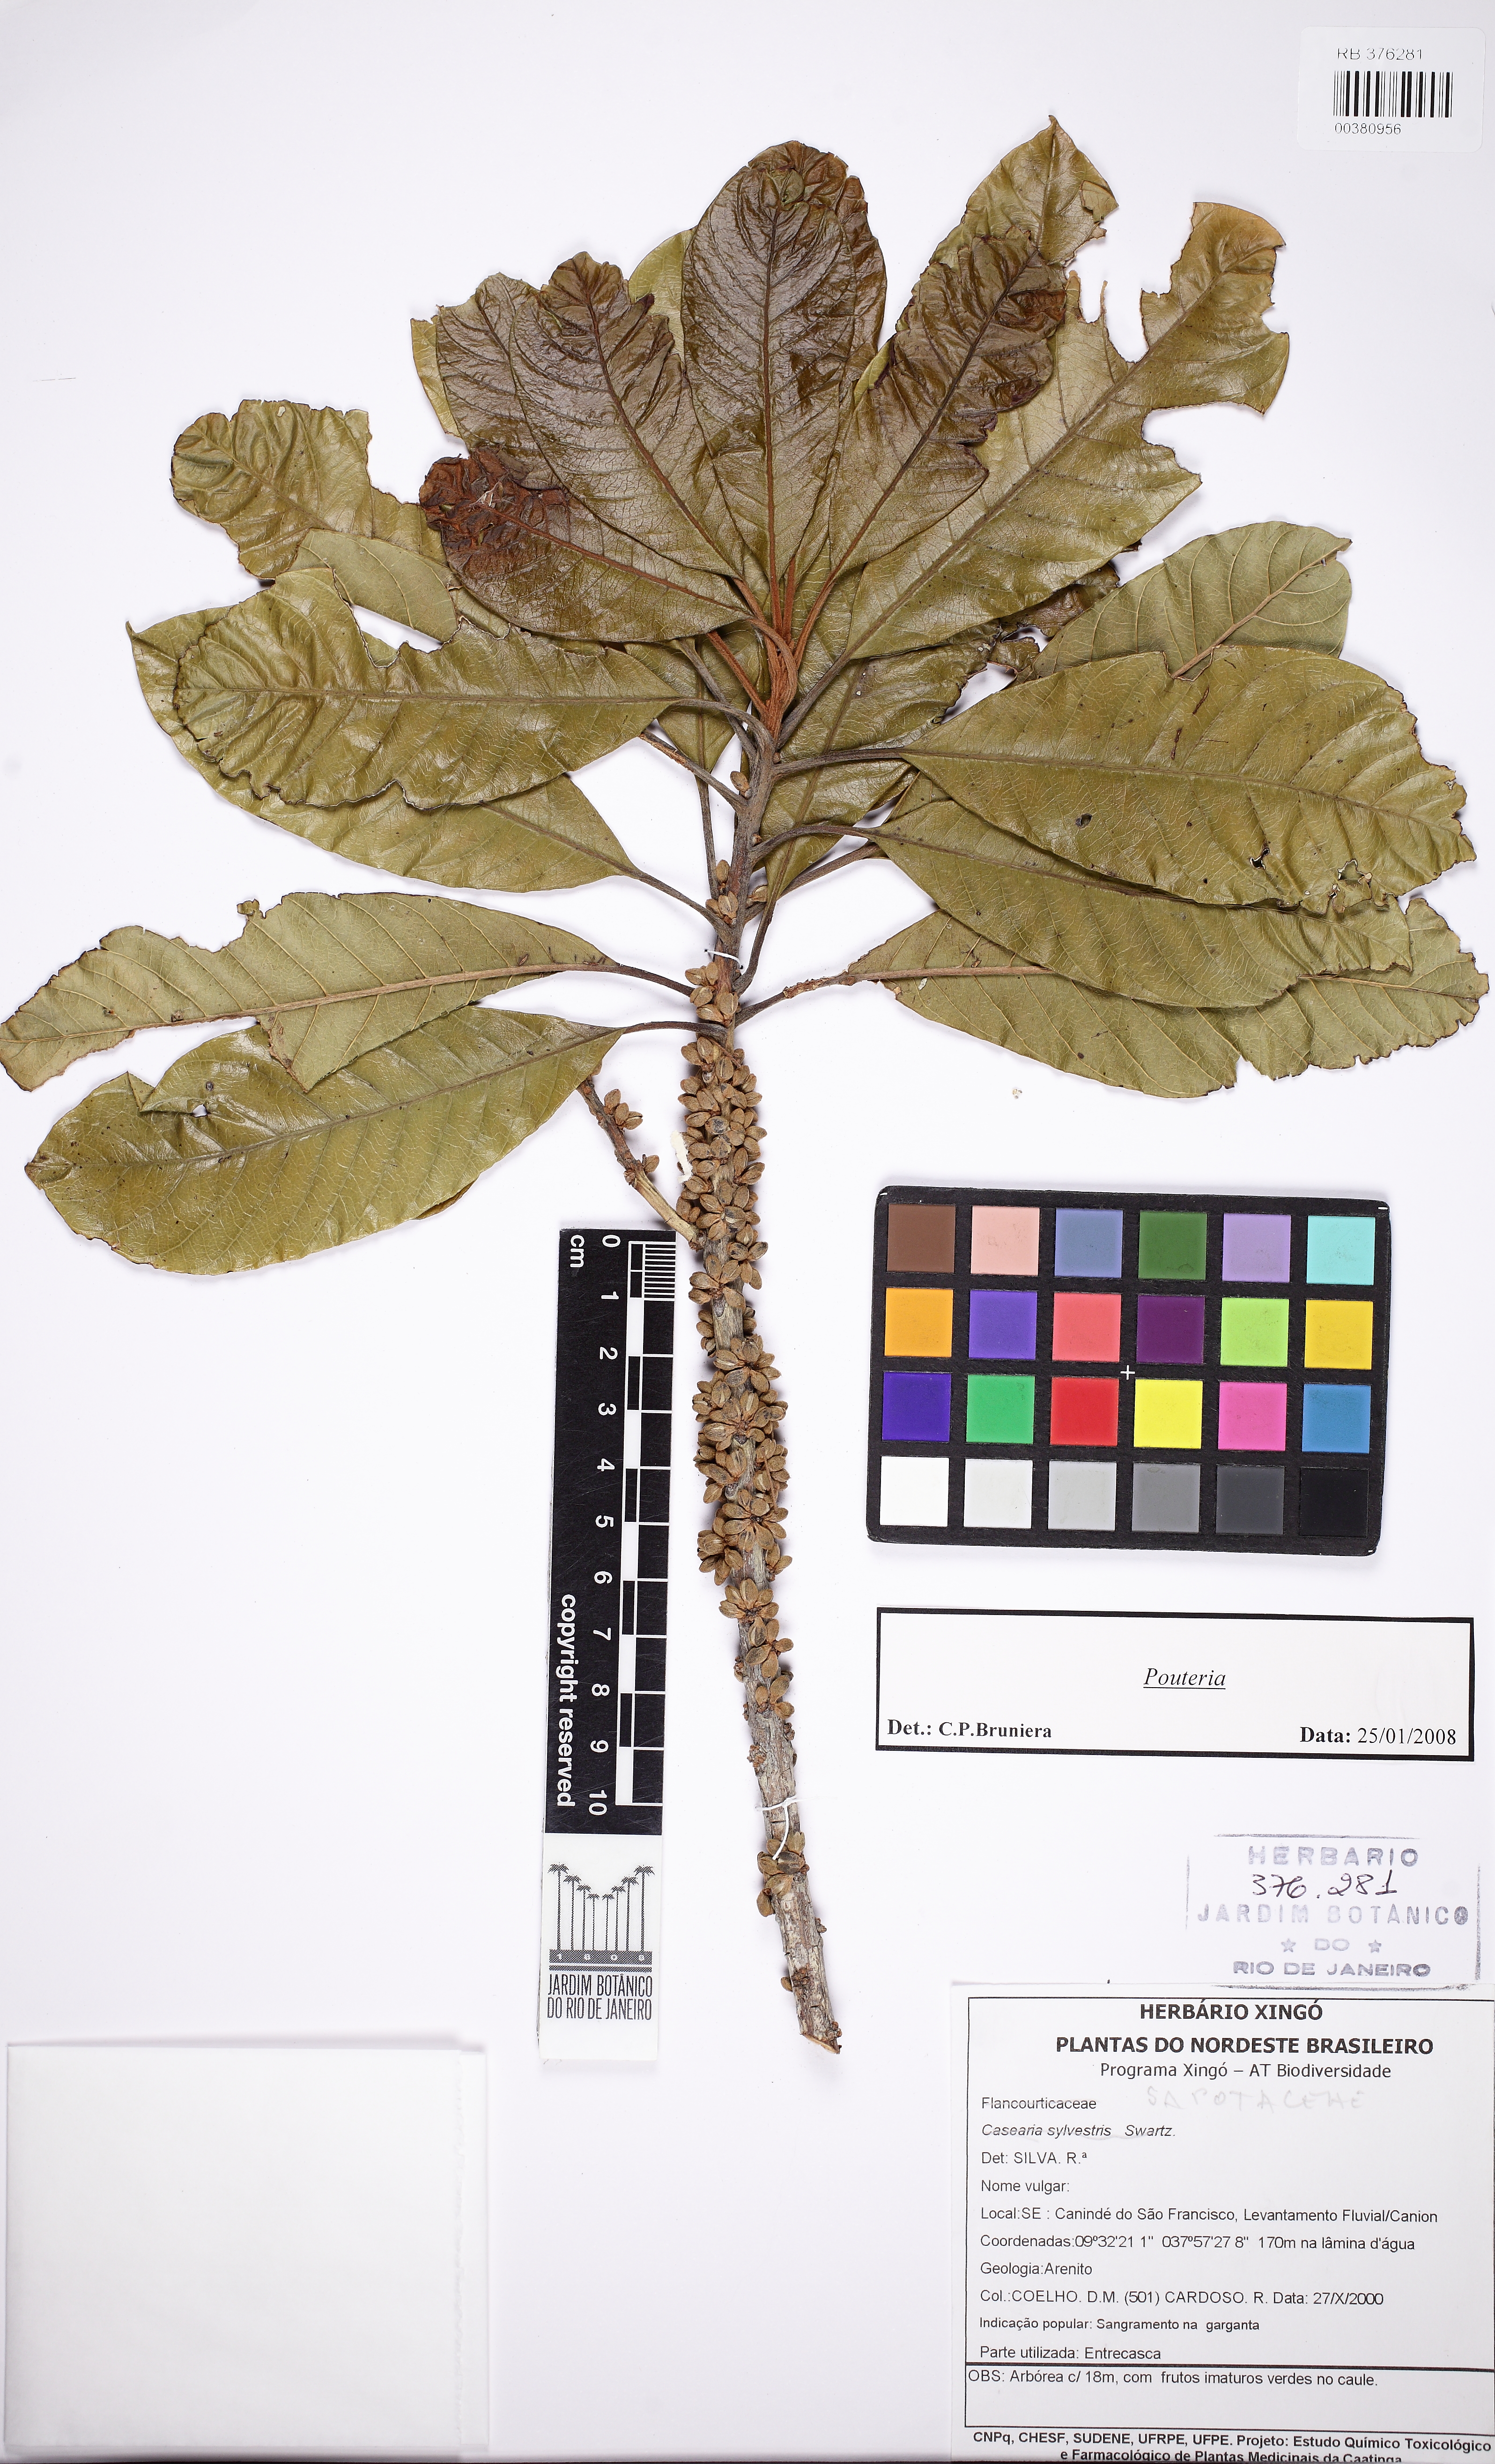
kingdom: Plantae
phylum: Tracheophyta
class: Magnoliopsida
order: Ericales
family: Sapotaceae
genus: Pouteria
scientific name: Pouteria nordestinensis
